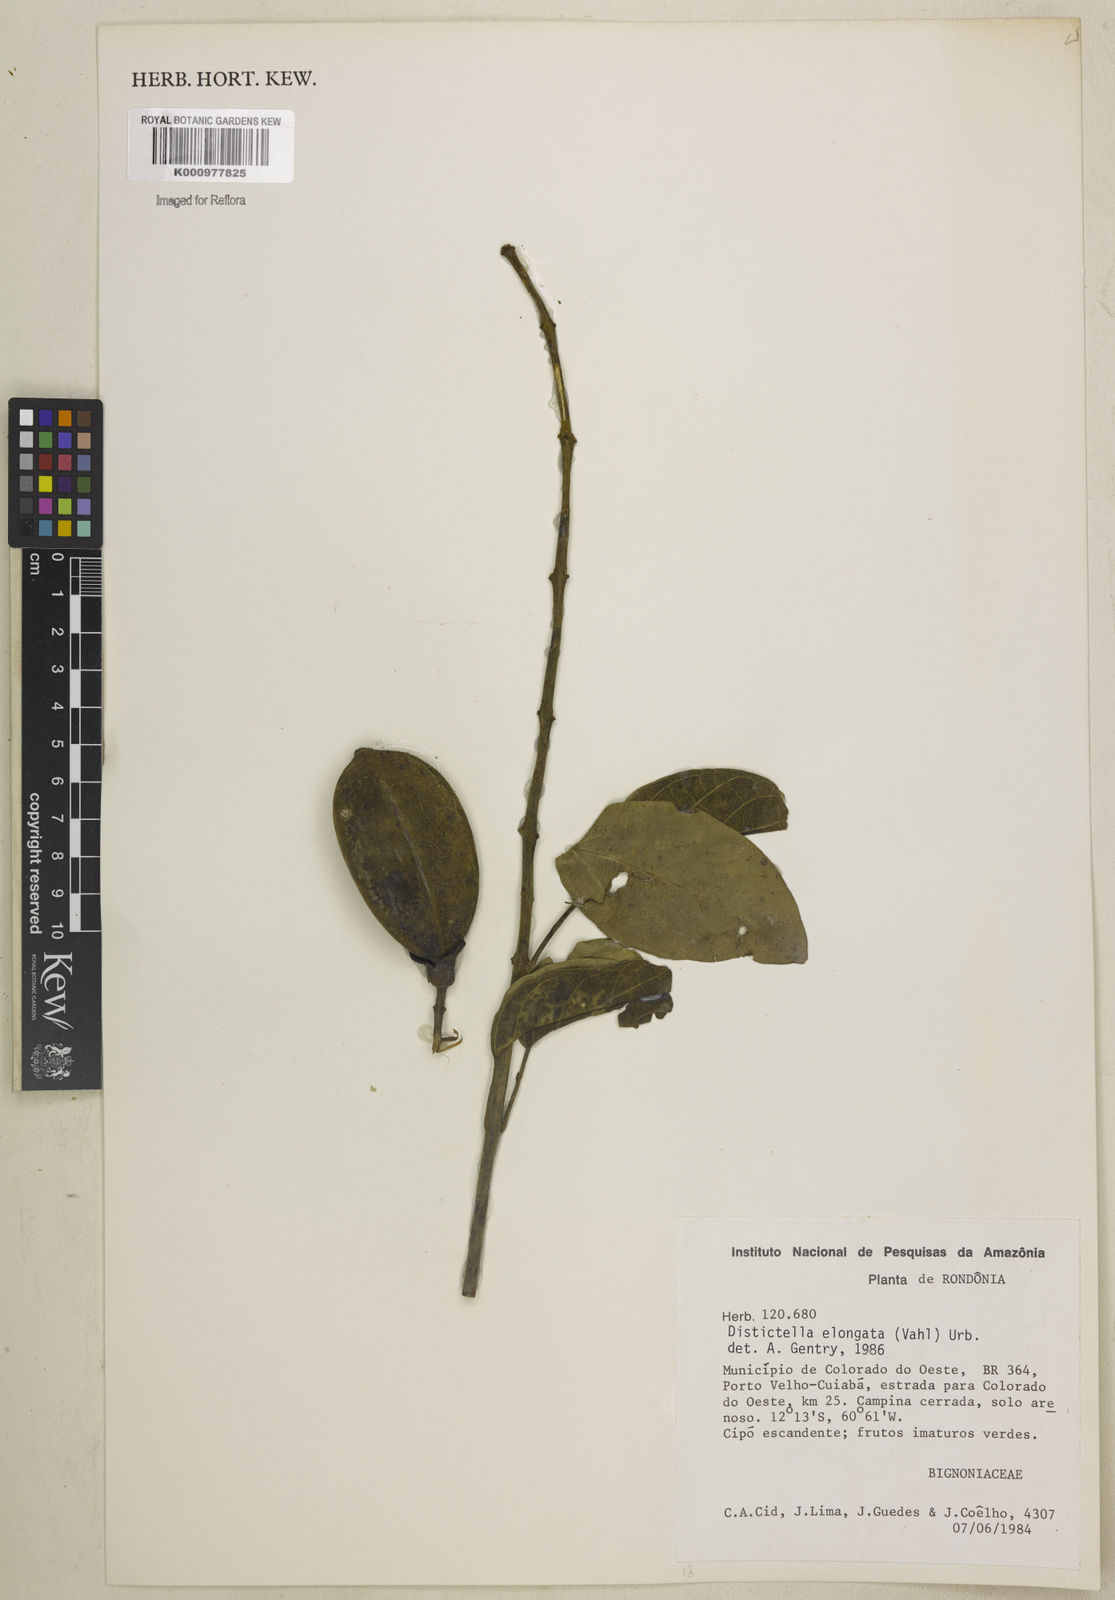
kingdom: Plantae
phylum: Tracheophyta
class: Magnoliopsida
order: Lamiales
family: Bignoniaceae
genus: Amphilophium
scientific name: Amphilophium elongatum
